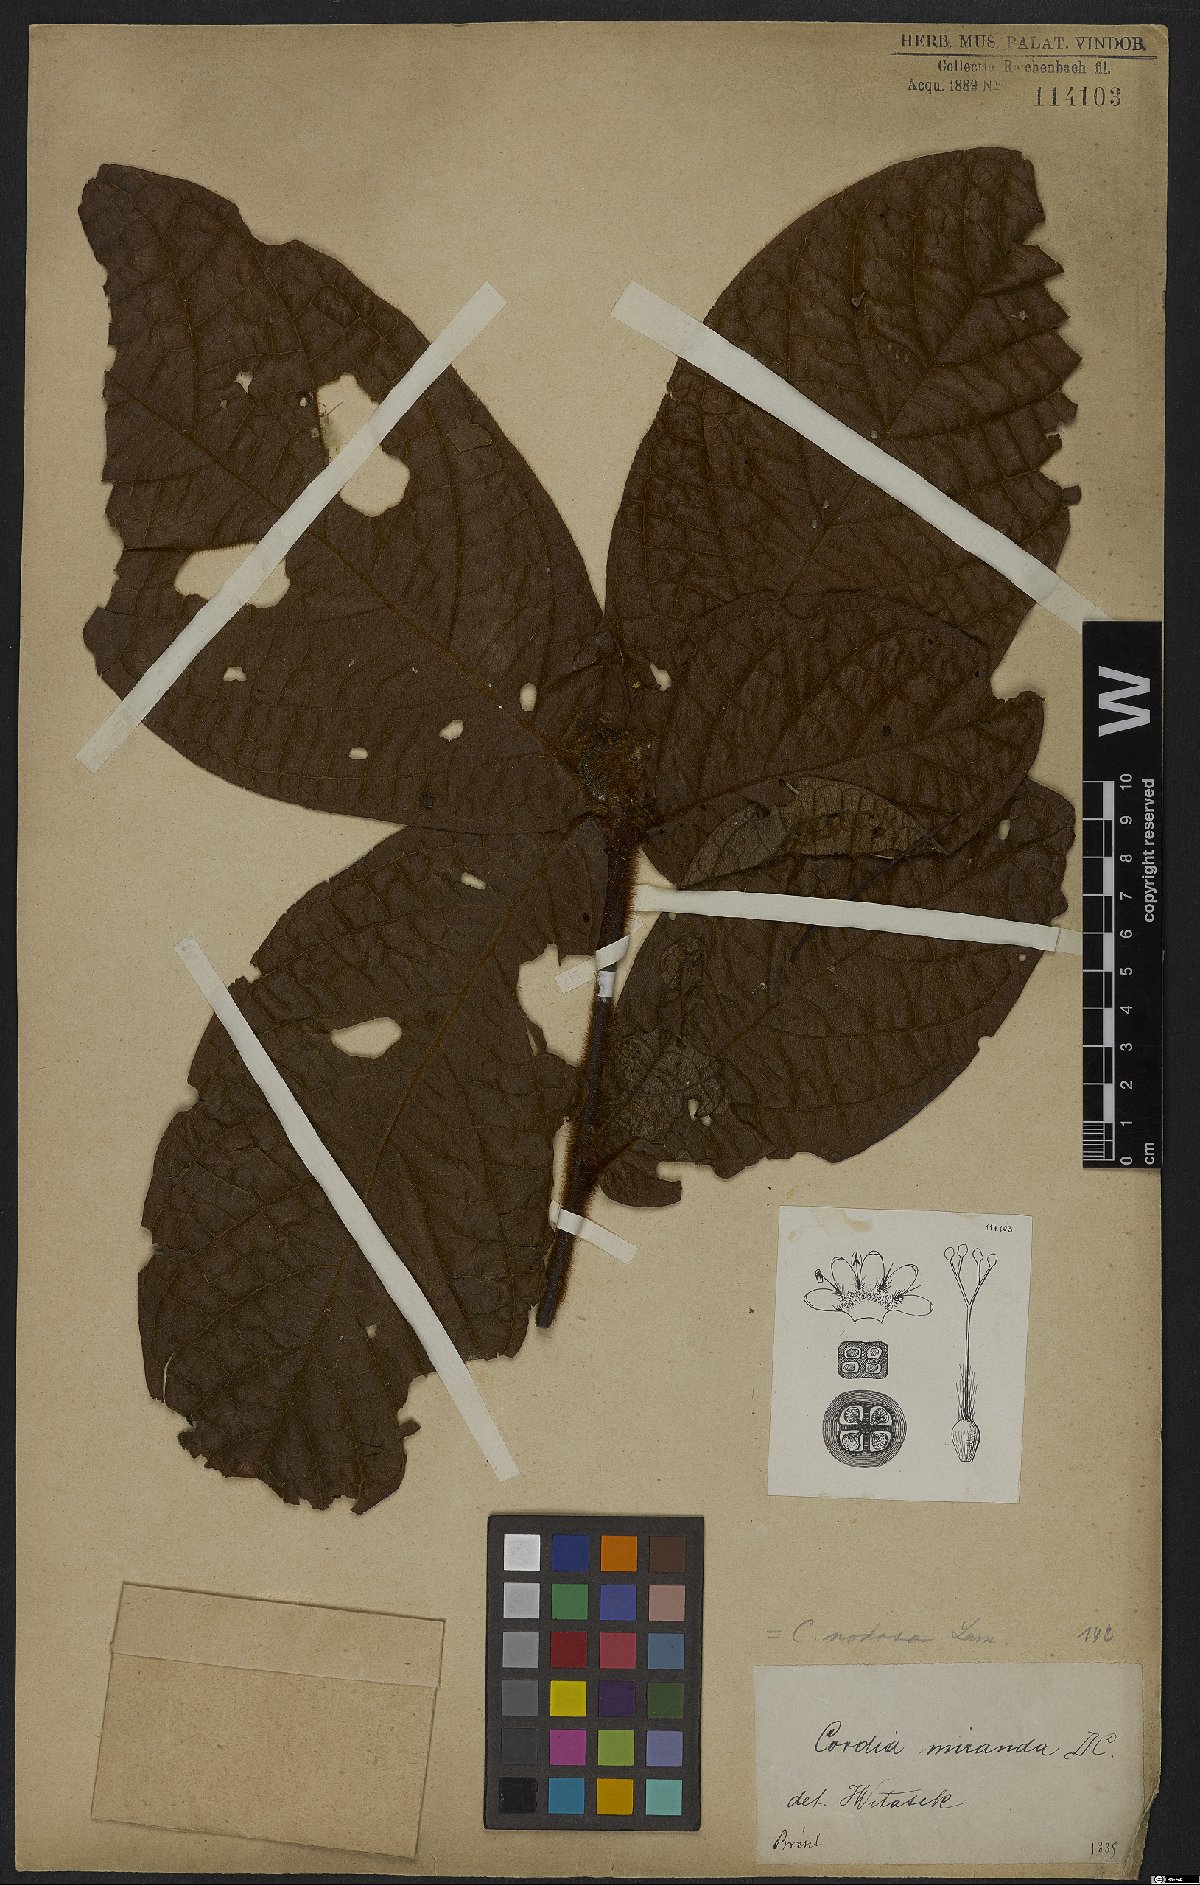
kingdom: Plantae
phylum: Tracheophyta
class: Magnoliopsida
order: Boraginales
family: Cordiaceae
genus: Cordia
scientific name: Cordia nodosa
